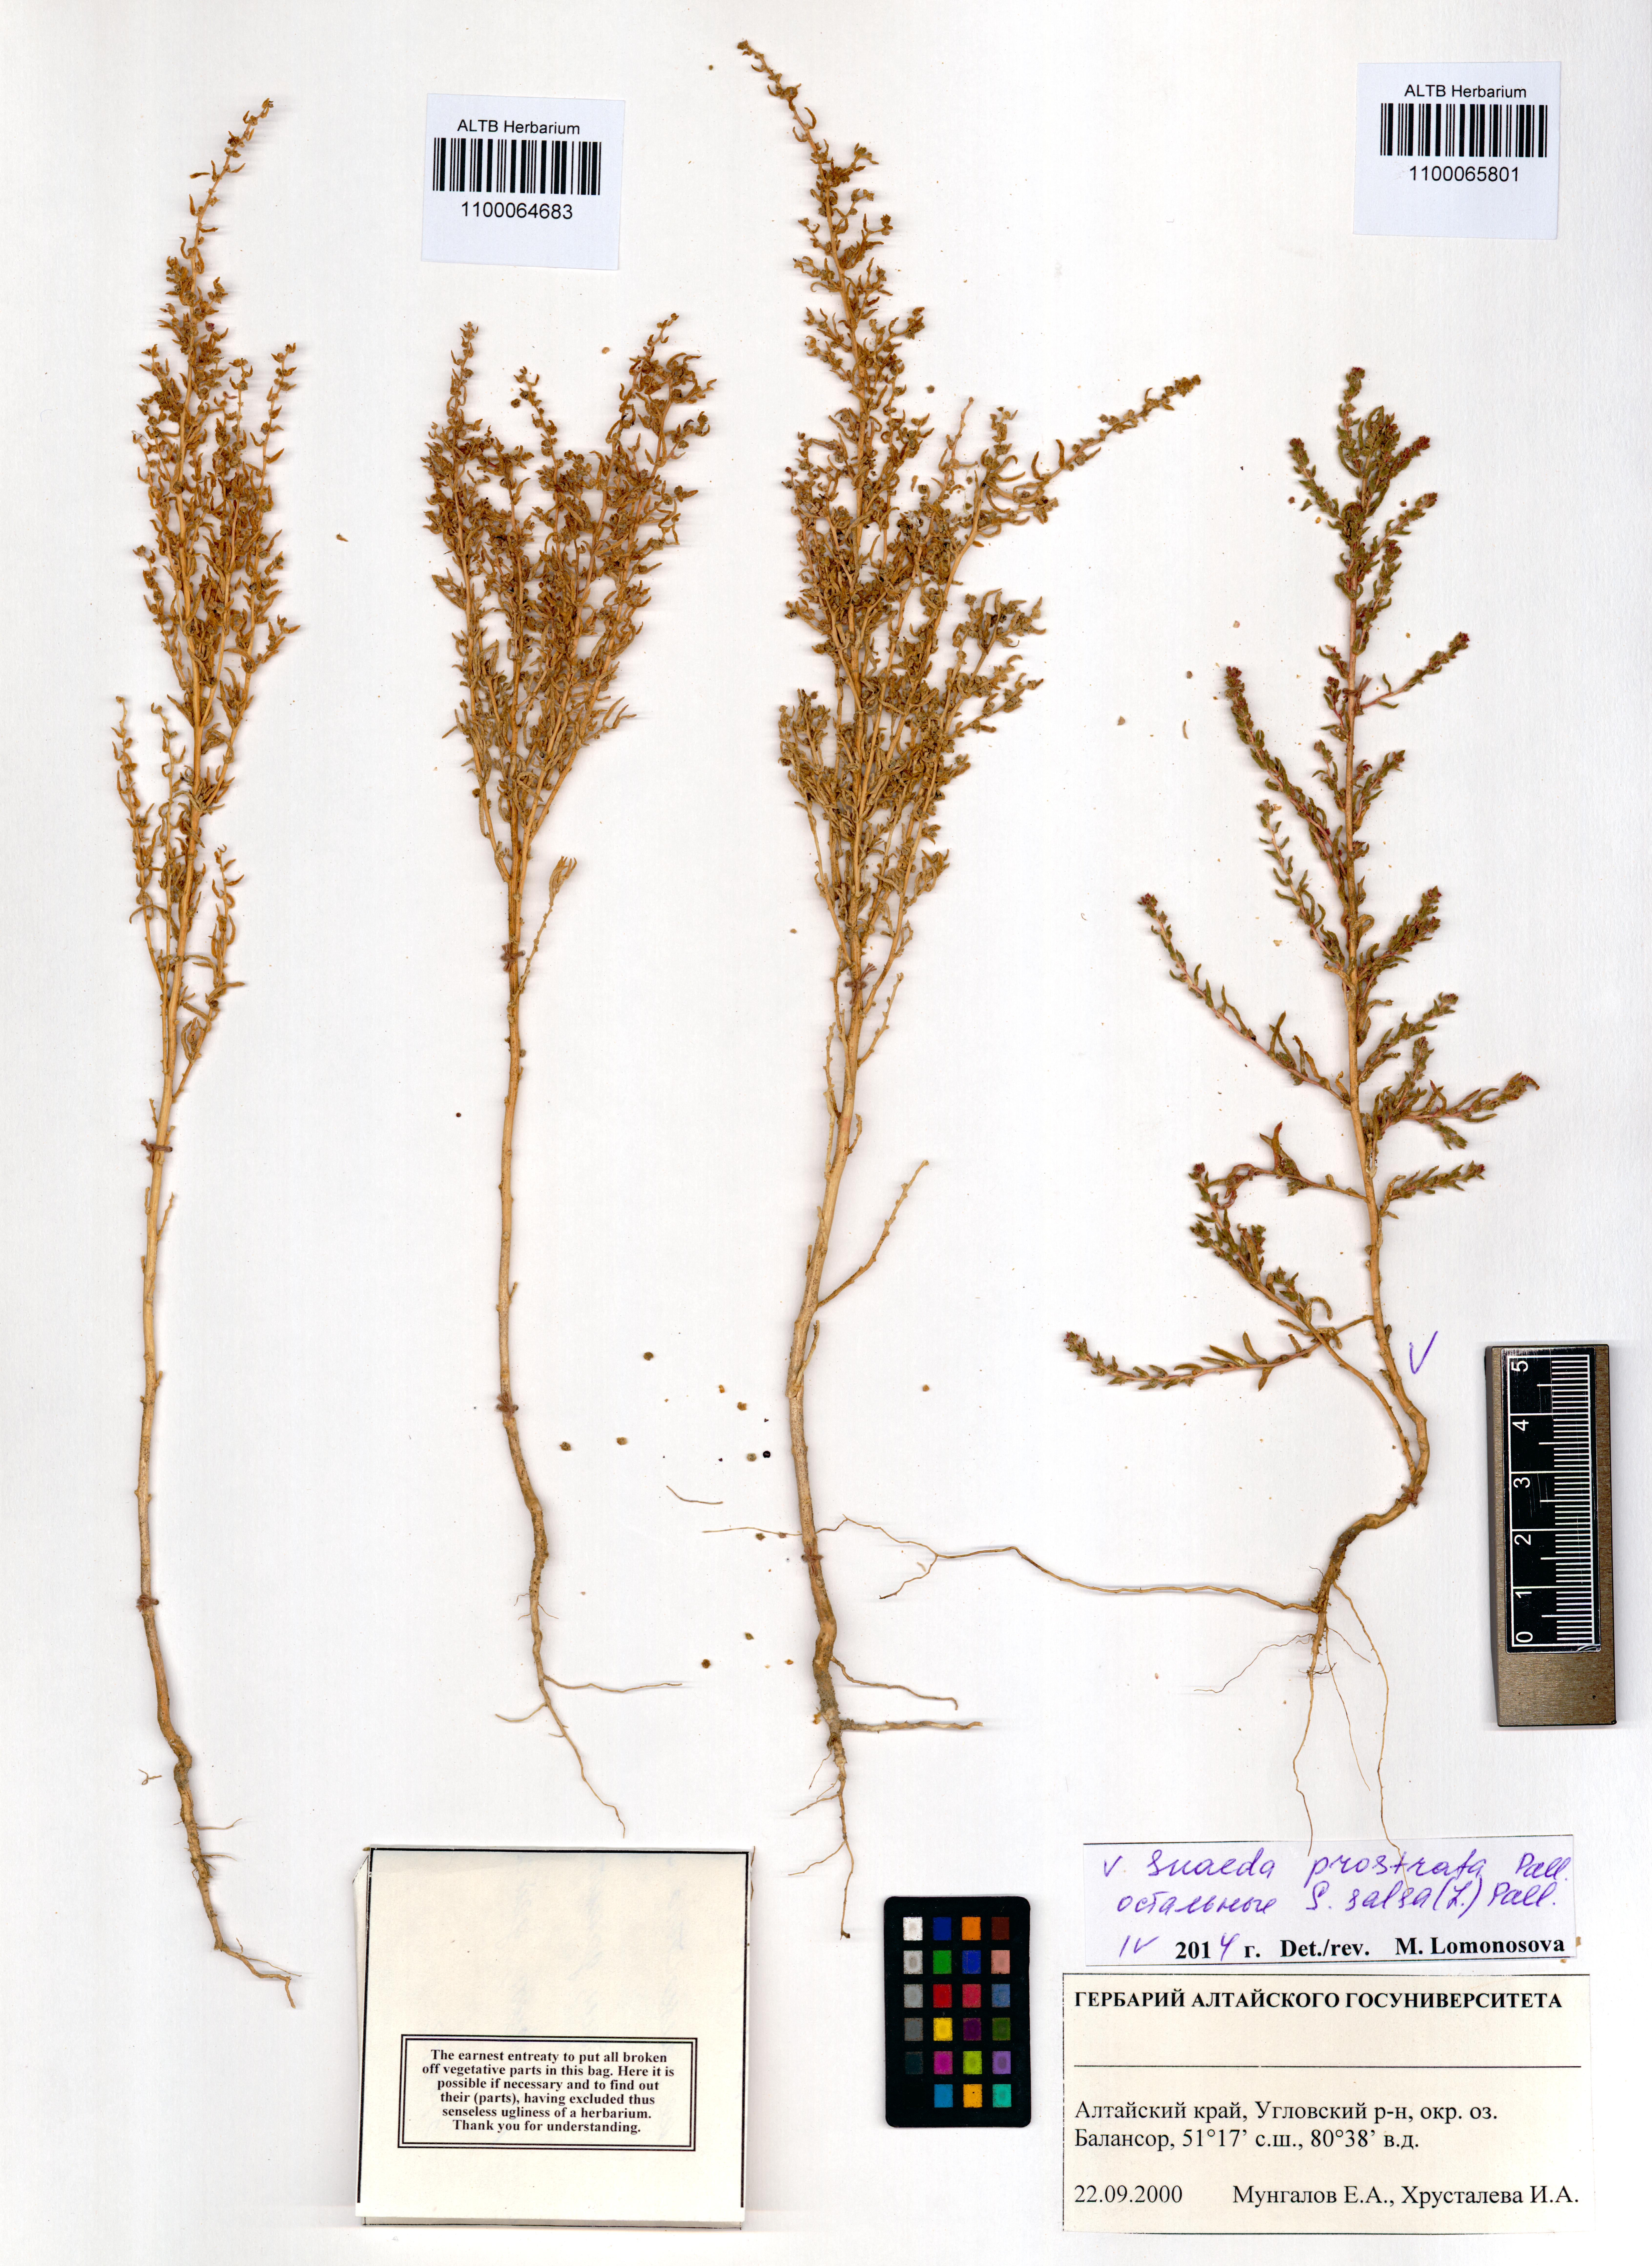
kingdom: Plantae
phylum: Tracheophyta
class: Magnoliopsida
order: Caryophyllales
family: Amaranthaceae
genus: Suaeda
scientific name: Suaeda prostrata
